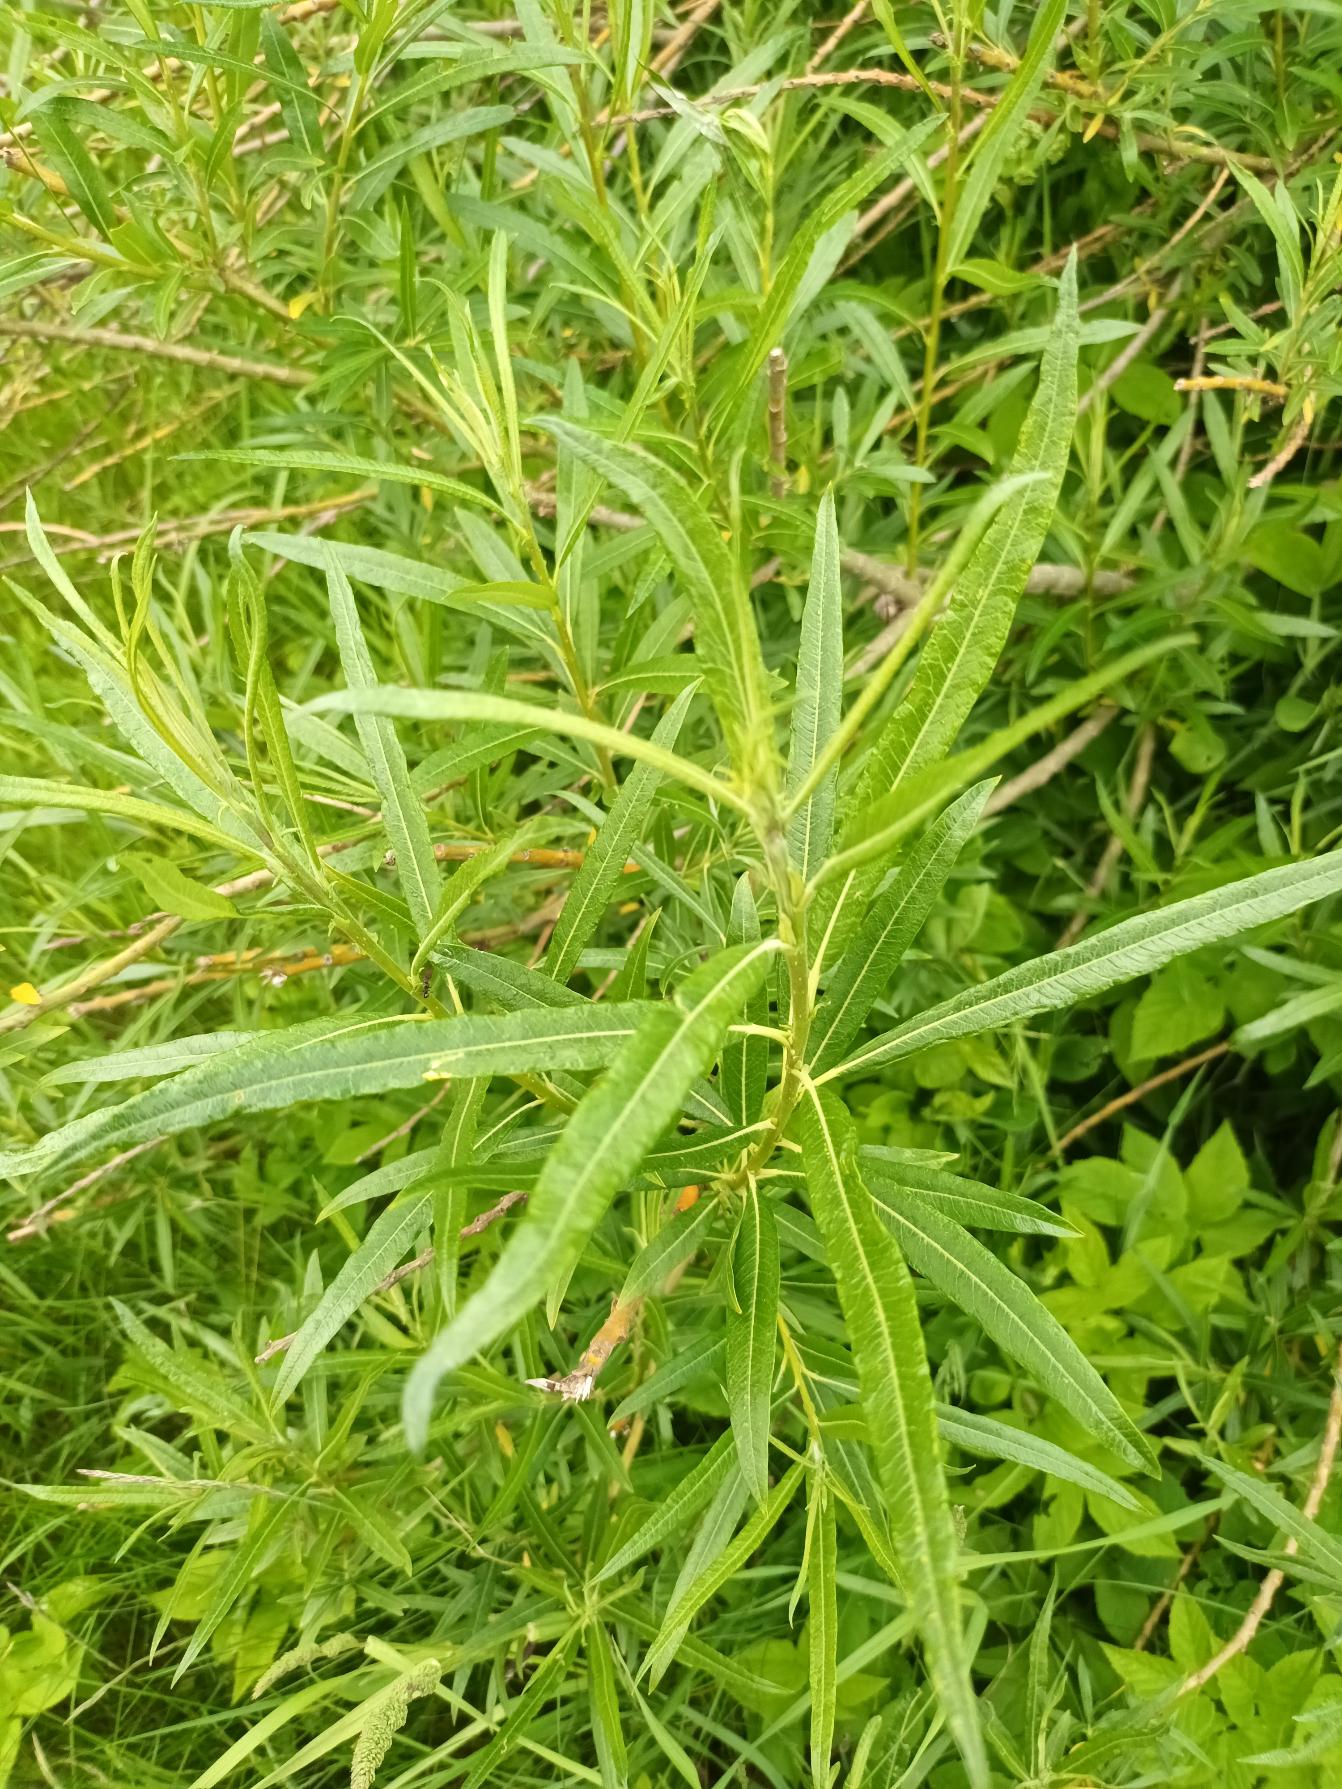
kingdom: Plantae
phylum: Tracheophyta
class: Magnoliopsida
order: Malpighiales
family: Salicaceae
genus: Salix
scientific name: Salix viminalis
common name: Bånd-pil
